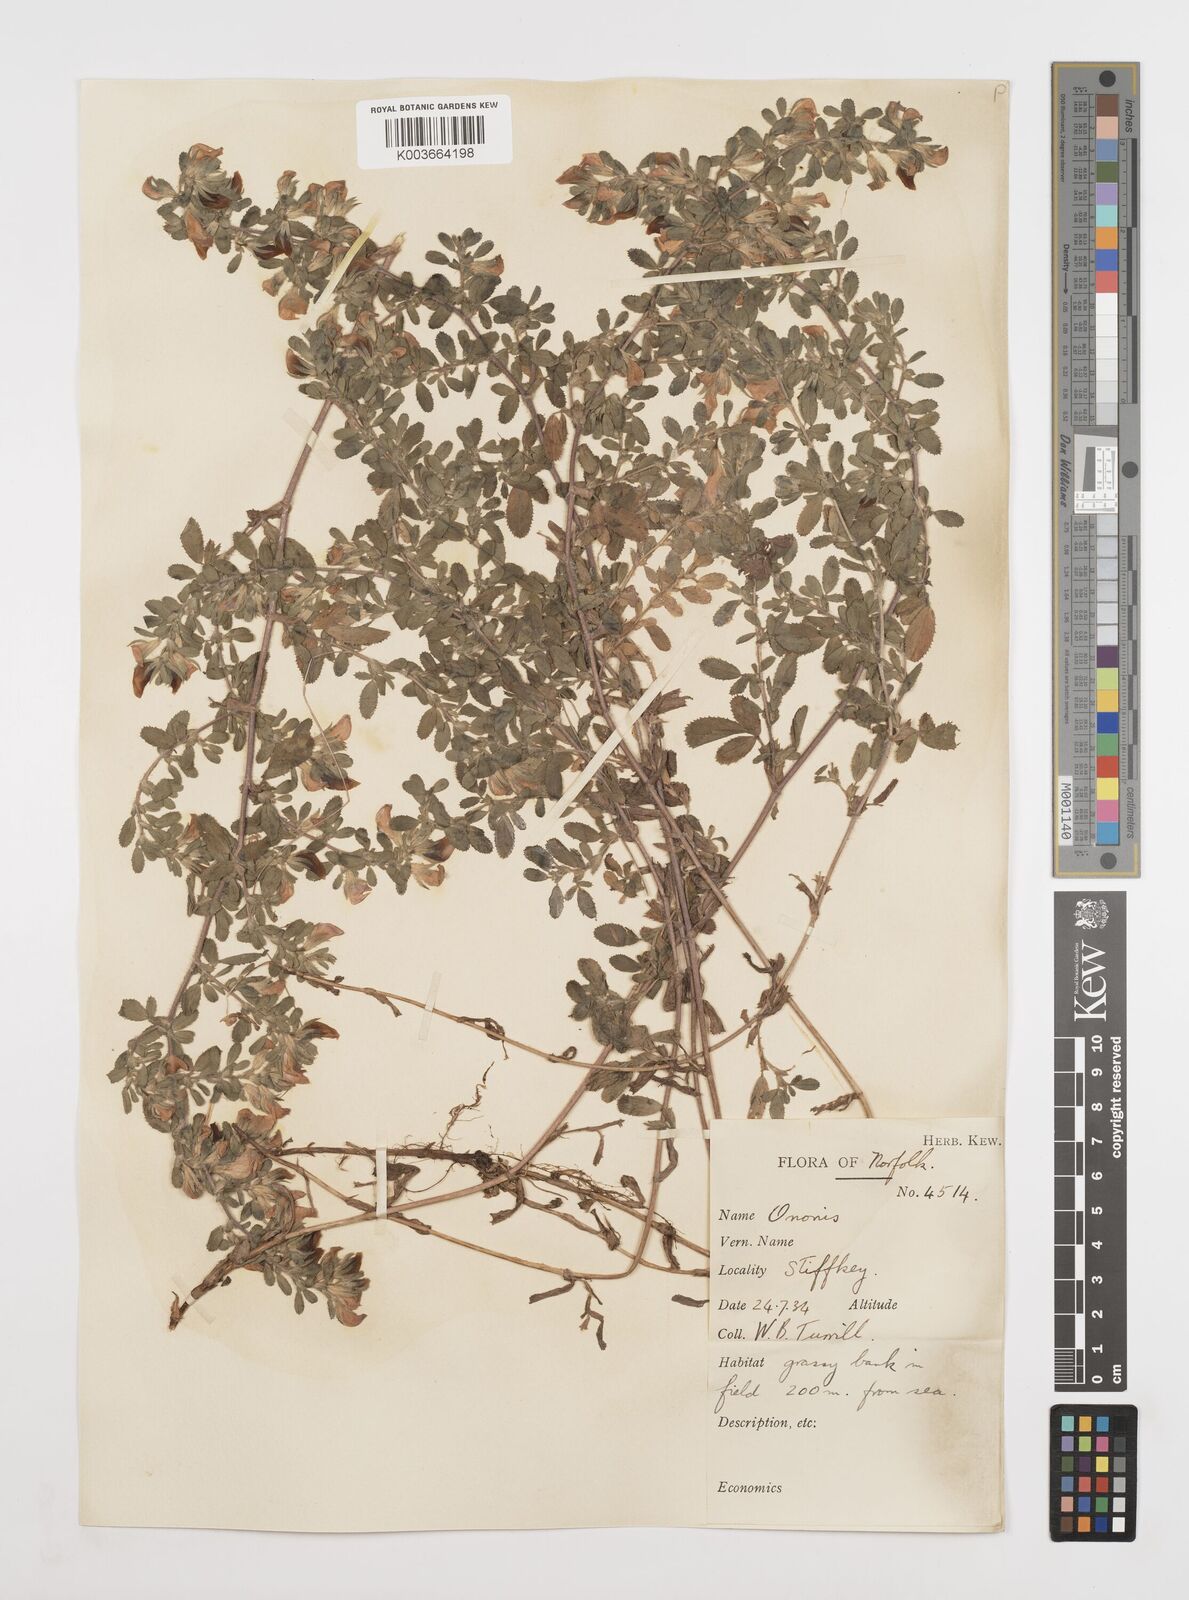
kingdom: Plantae
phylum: Tracheophyta
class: Magnoliopsida
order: Fabales
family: Fabaceae
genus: Ononis
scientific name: Ononis spinosa
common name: Spiny restharrow
